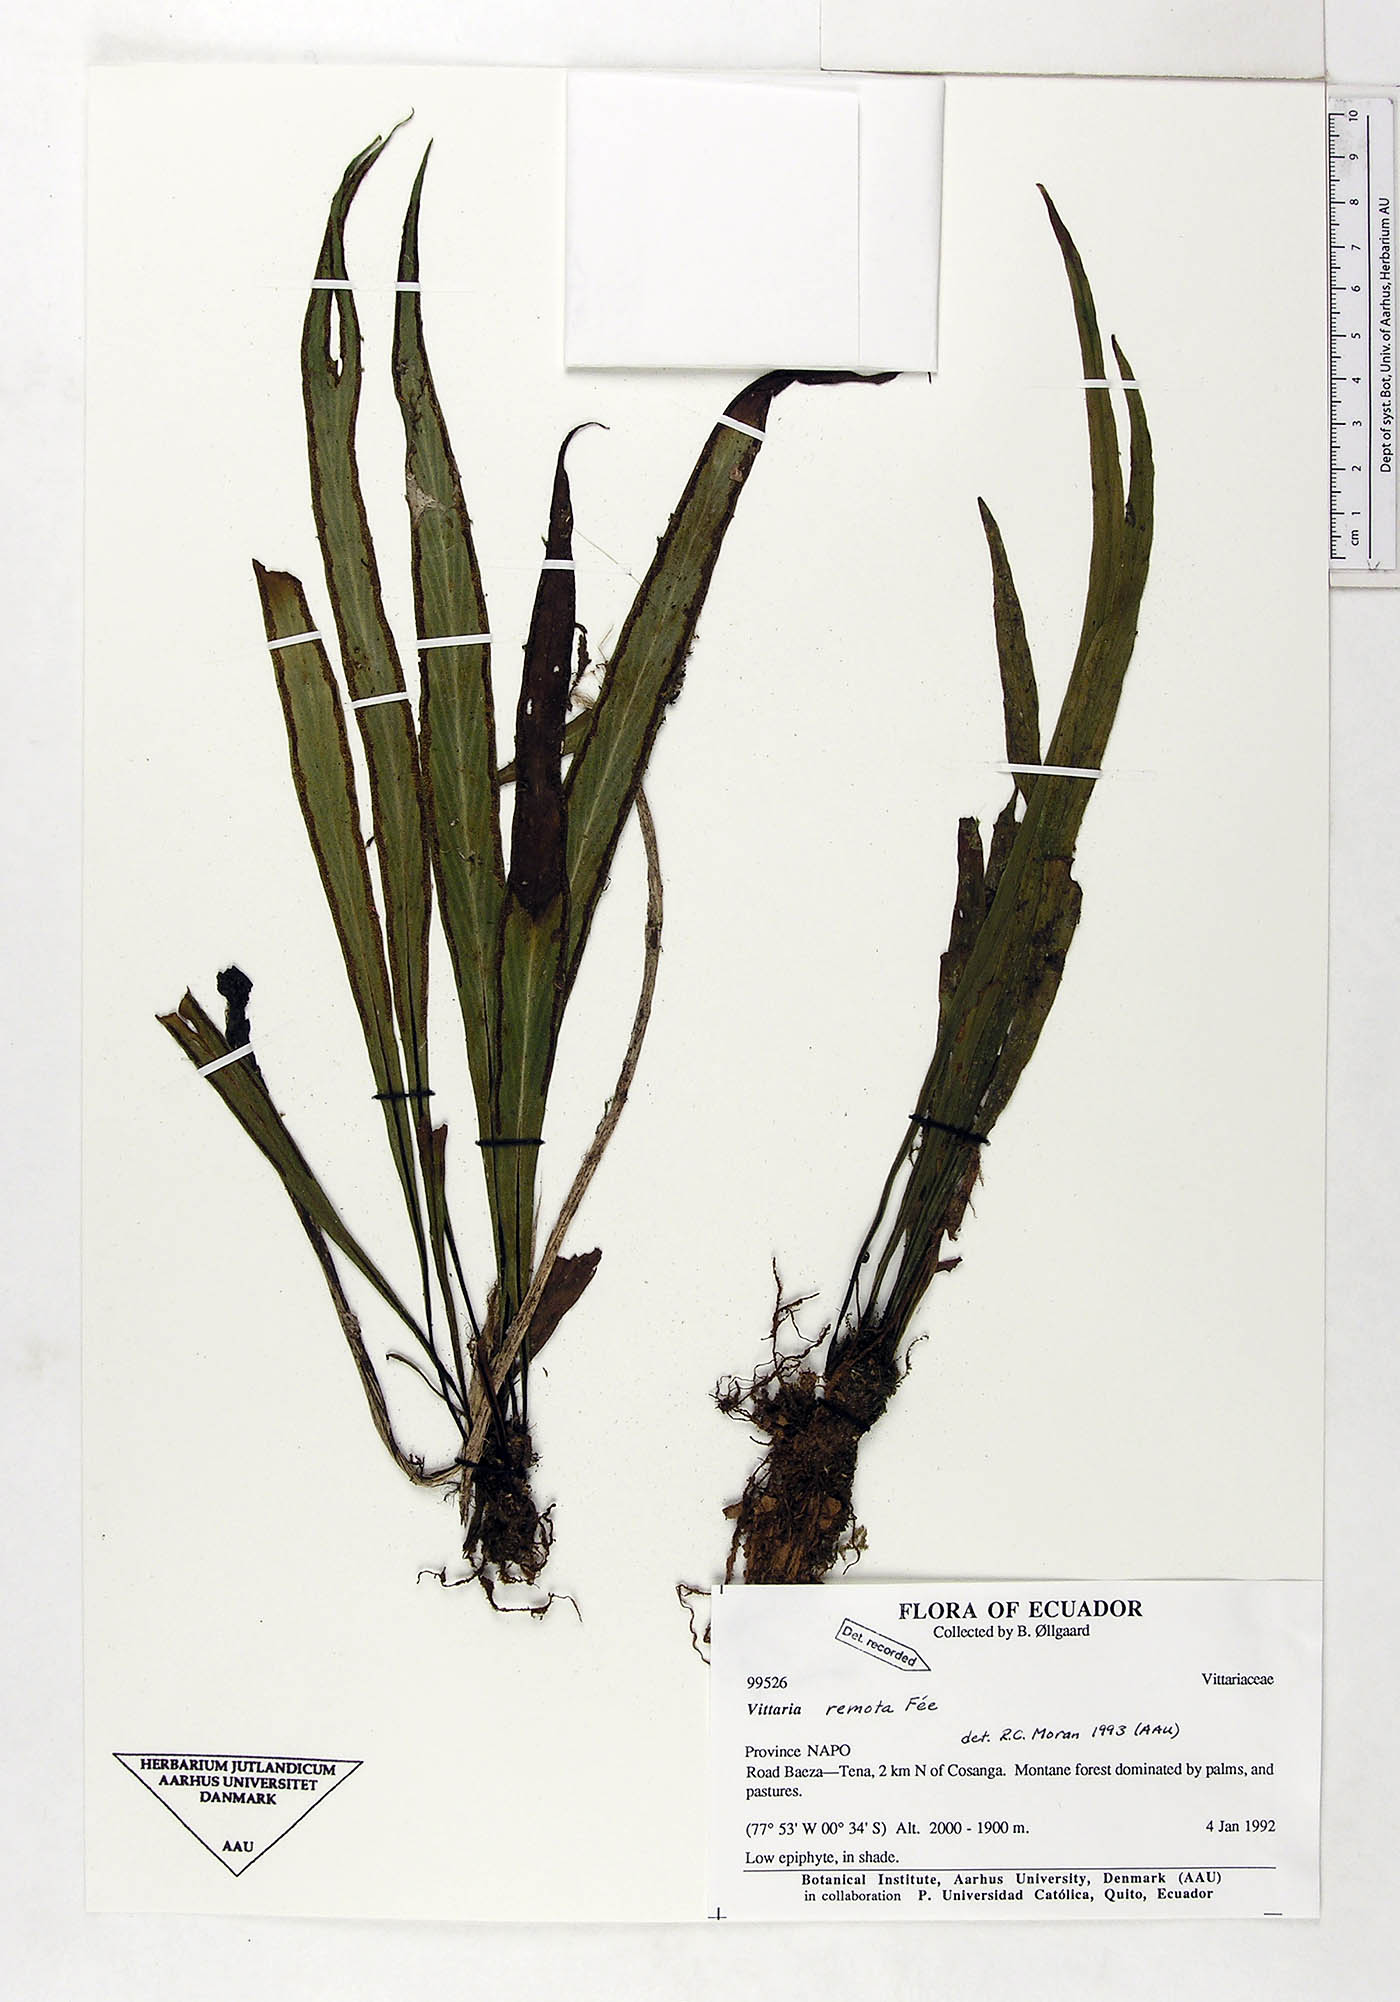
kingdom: Plantae
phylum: Tracheophyta
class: Polypodiopsida
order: Polypodiales
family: Pteridaceae
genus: Radiovittaria
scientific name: Radiovittaria remota
